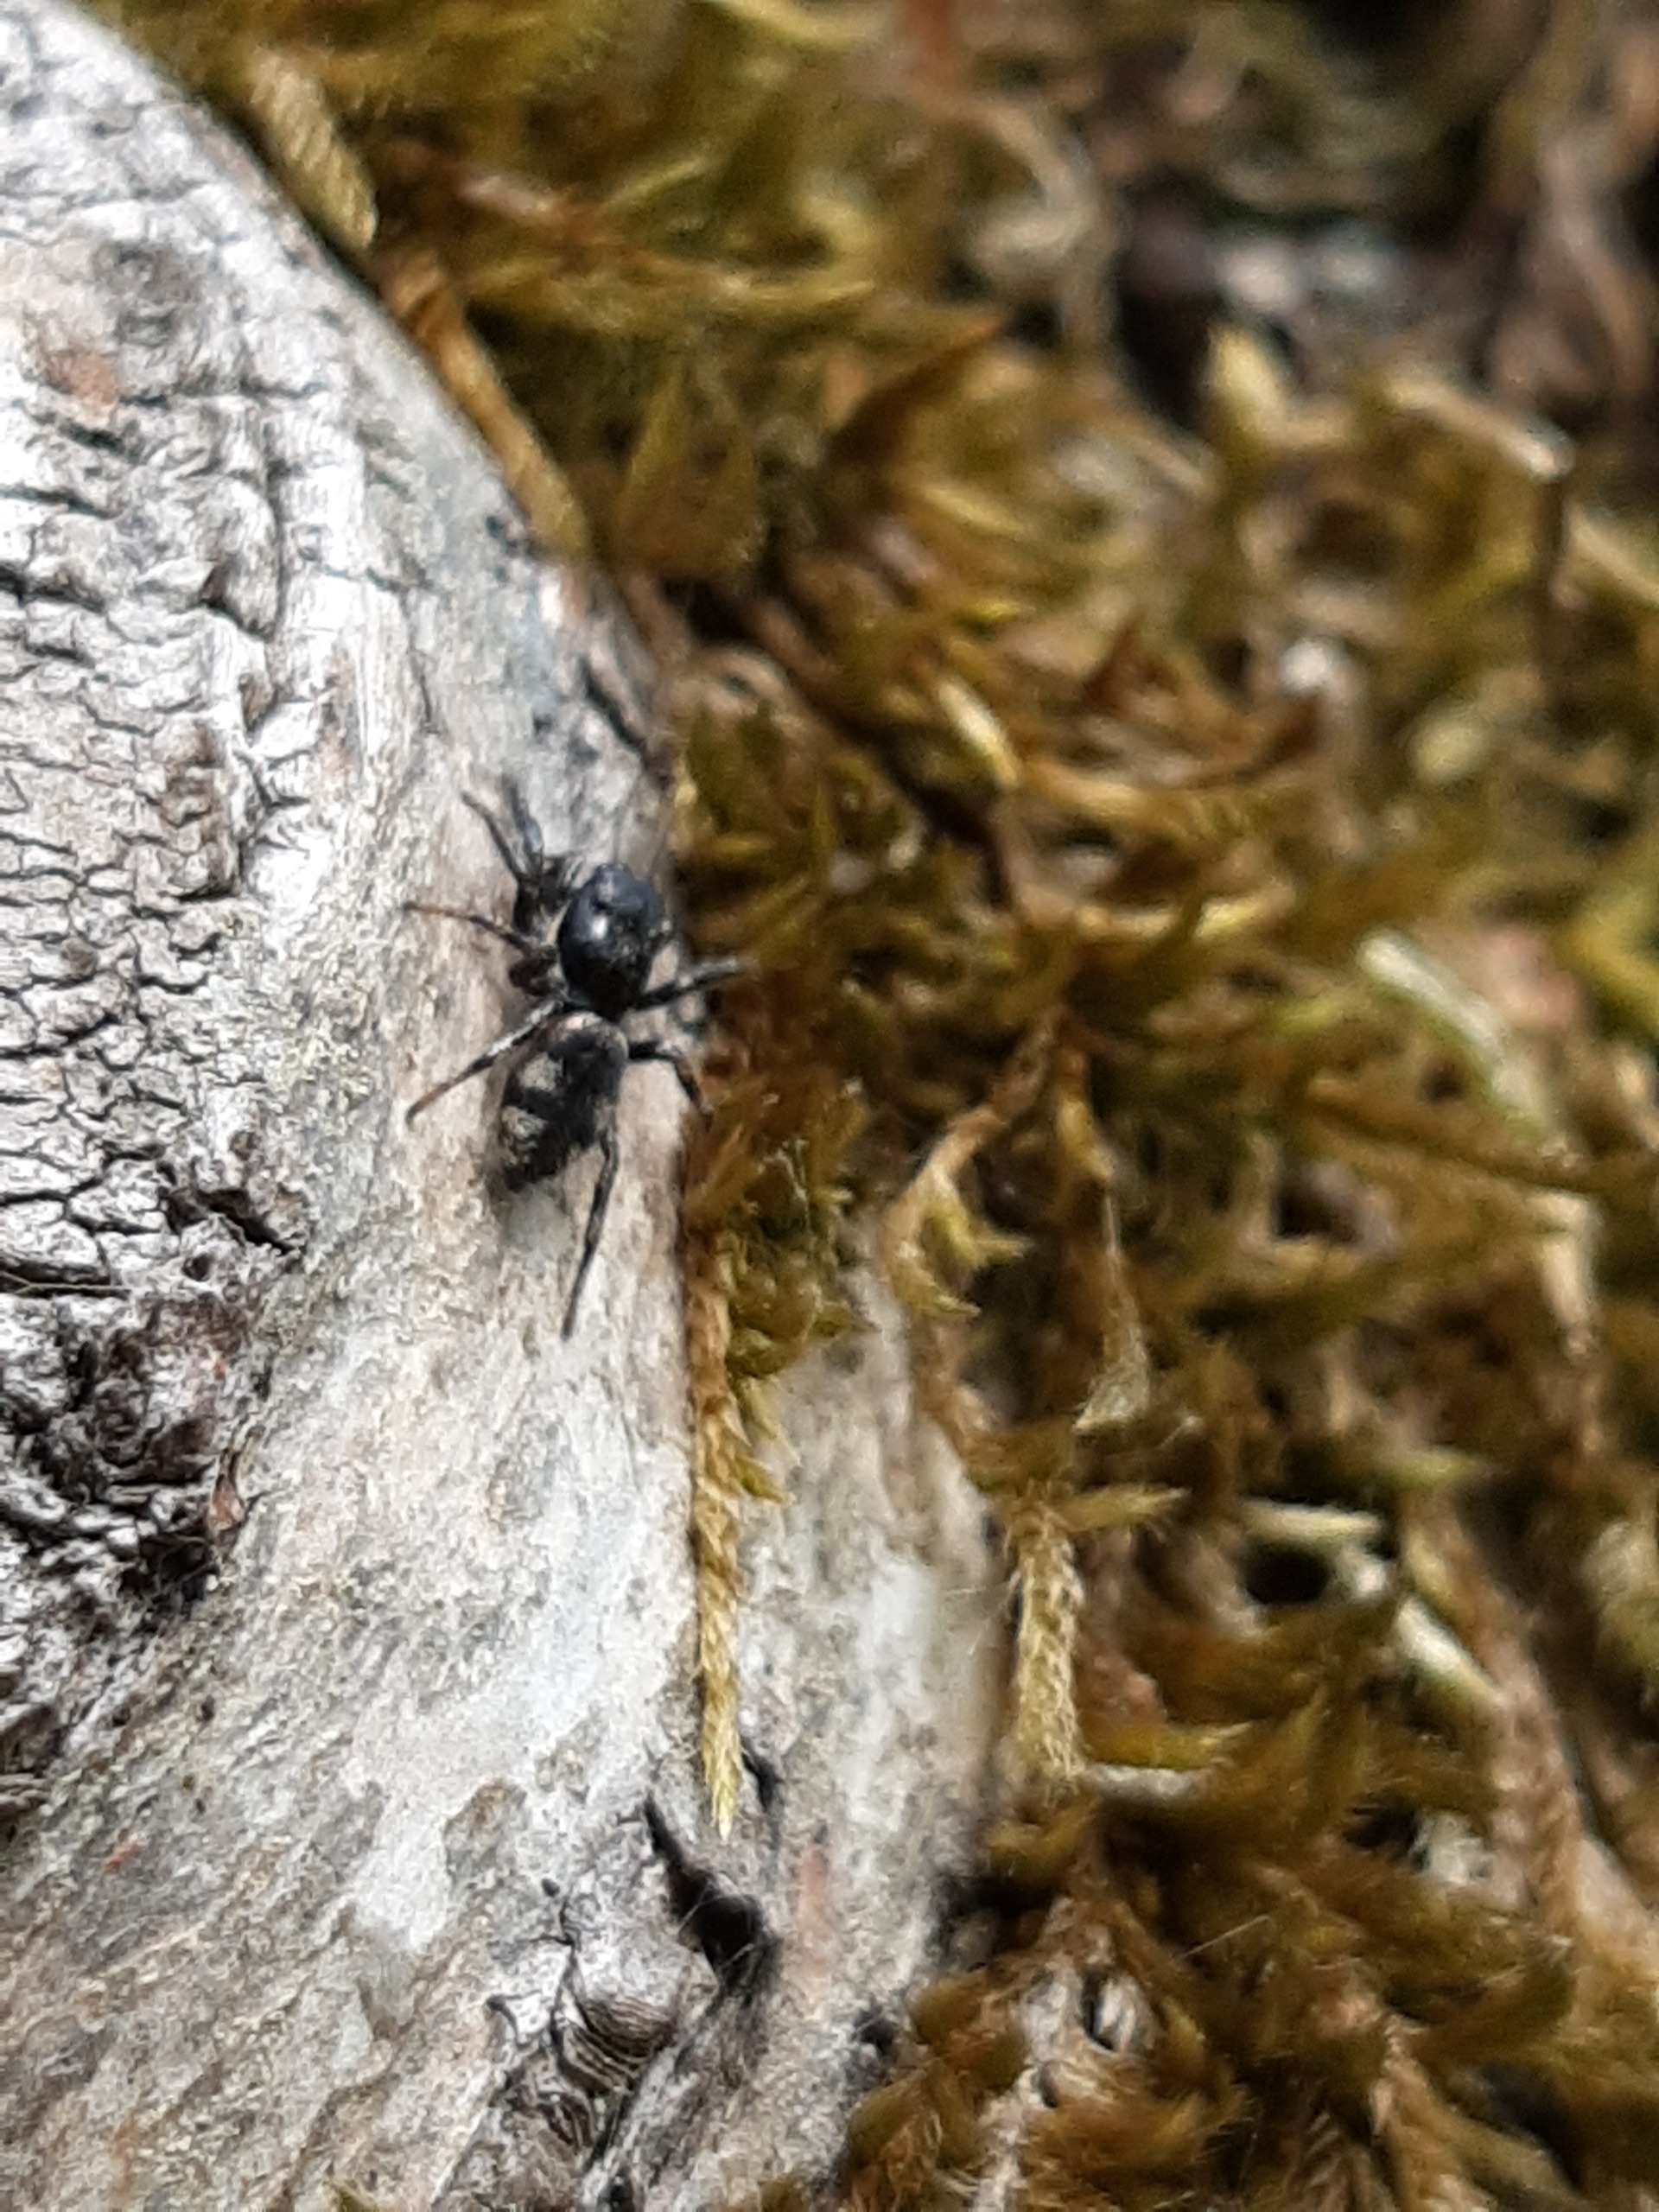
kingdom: Animalia
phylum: Arthropoda
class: Arachnida
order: Araneae
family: Salticidae
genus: Salticus
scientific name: Salticus
